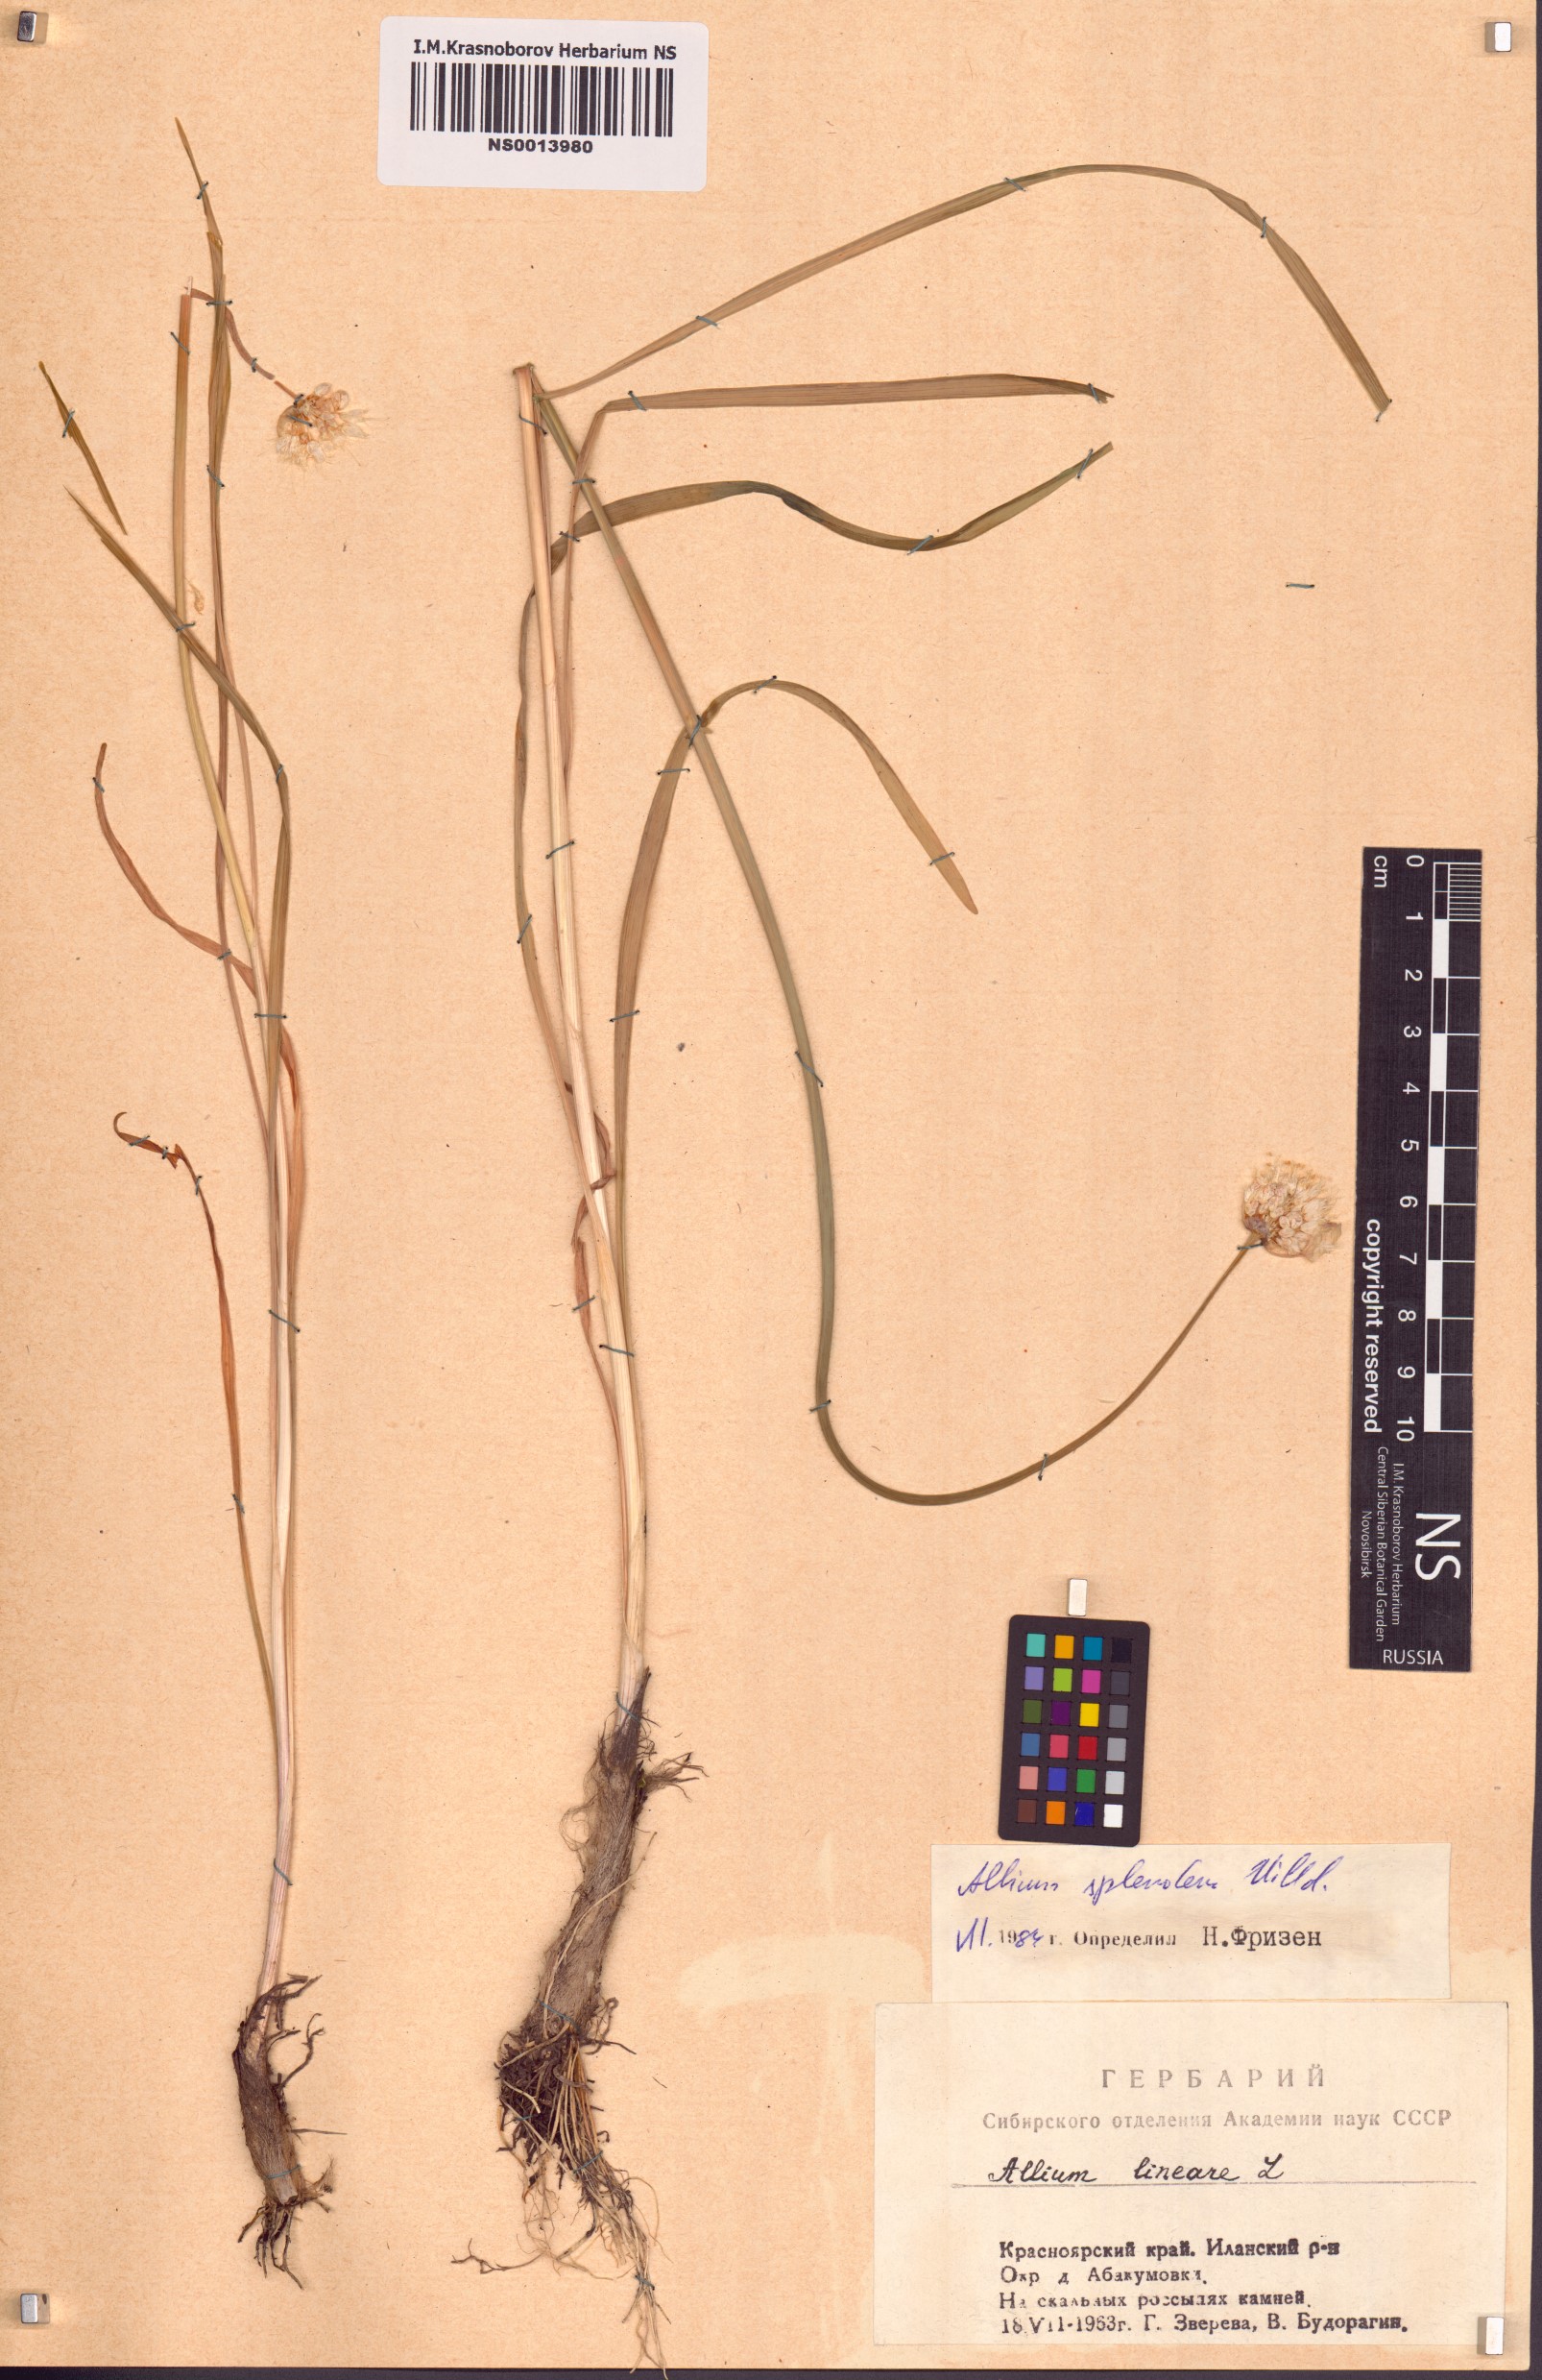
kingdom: Plantae
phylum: Tracheophyta
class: Liliopsida
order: Asparagales
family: Amaryllidaceae
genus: Allium
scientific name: Allium splendens
